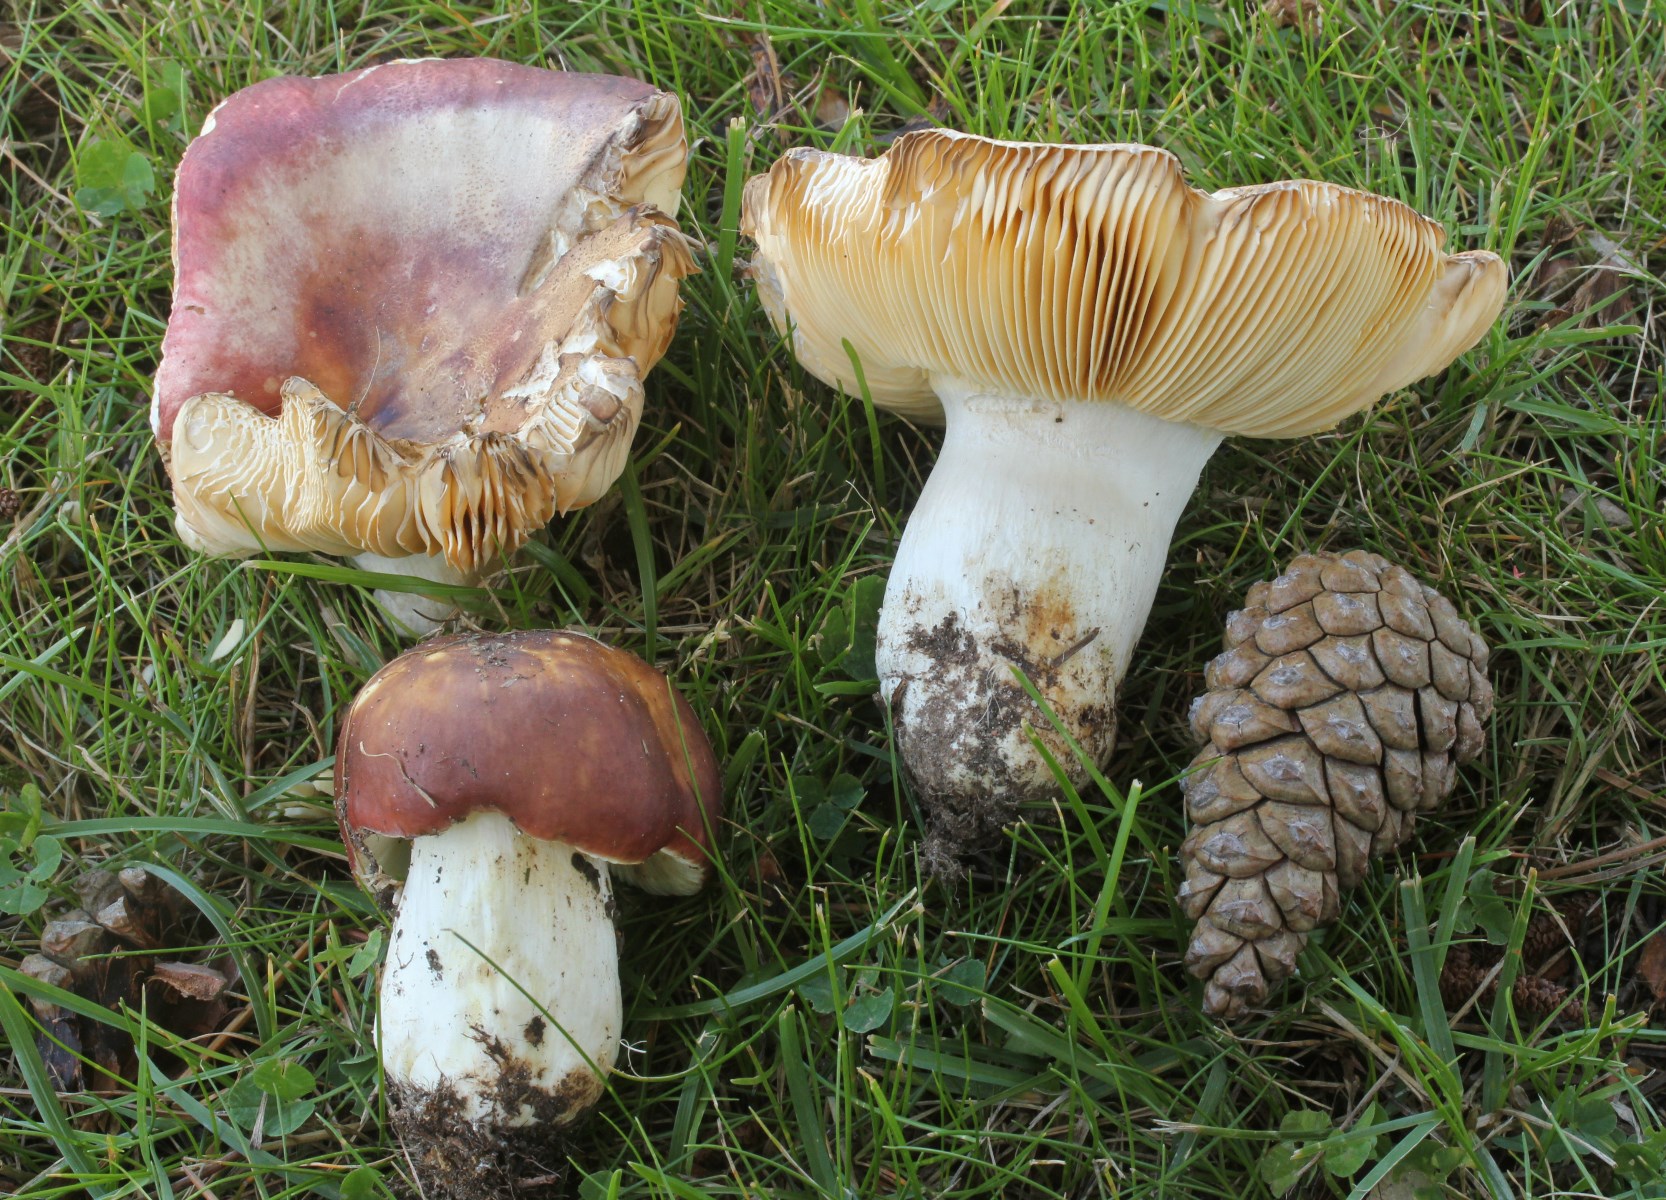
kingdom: Fungi
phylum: Basidiomycota
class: Agaricomycetes
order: Russulales
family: Russulaceae
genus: Russula
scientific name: Russula integra
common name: mandel-skørhat
